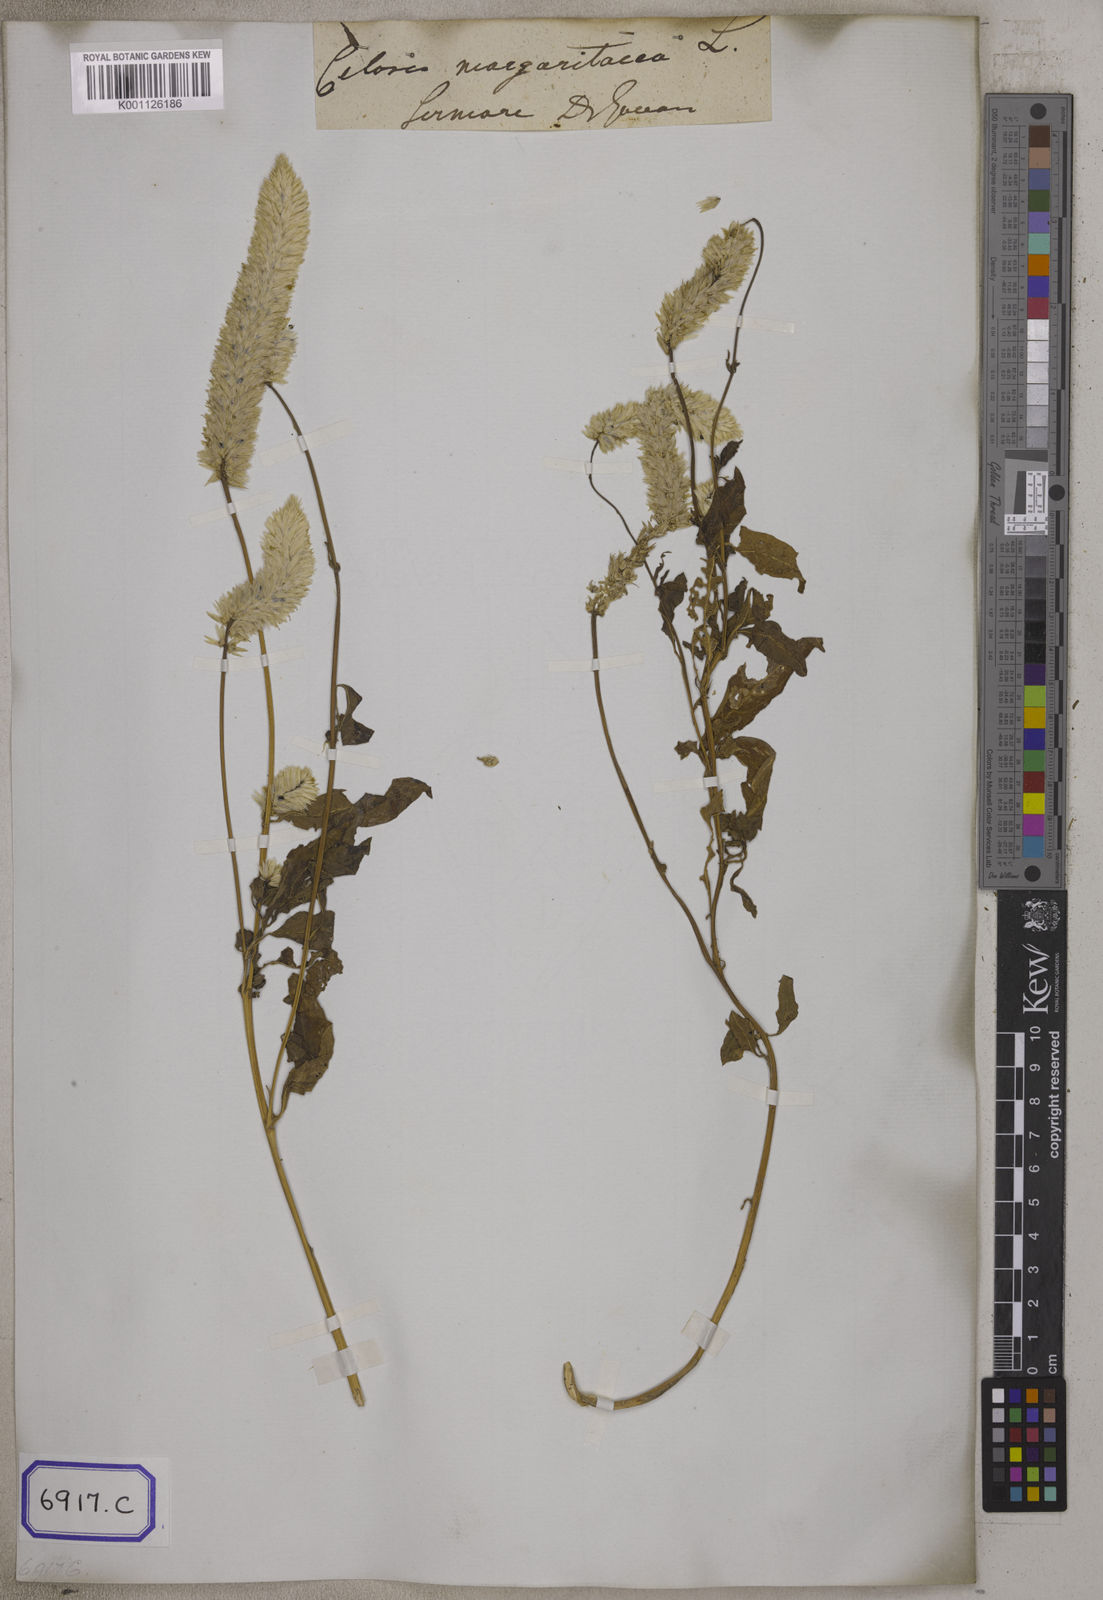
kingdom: Plantae
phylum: Tracheophyta
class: Magnoliopsida
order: Caryophyllales
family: Amaranthaceae
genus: Celosia
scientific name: Celosia argentea
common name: Feather cockscomb
